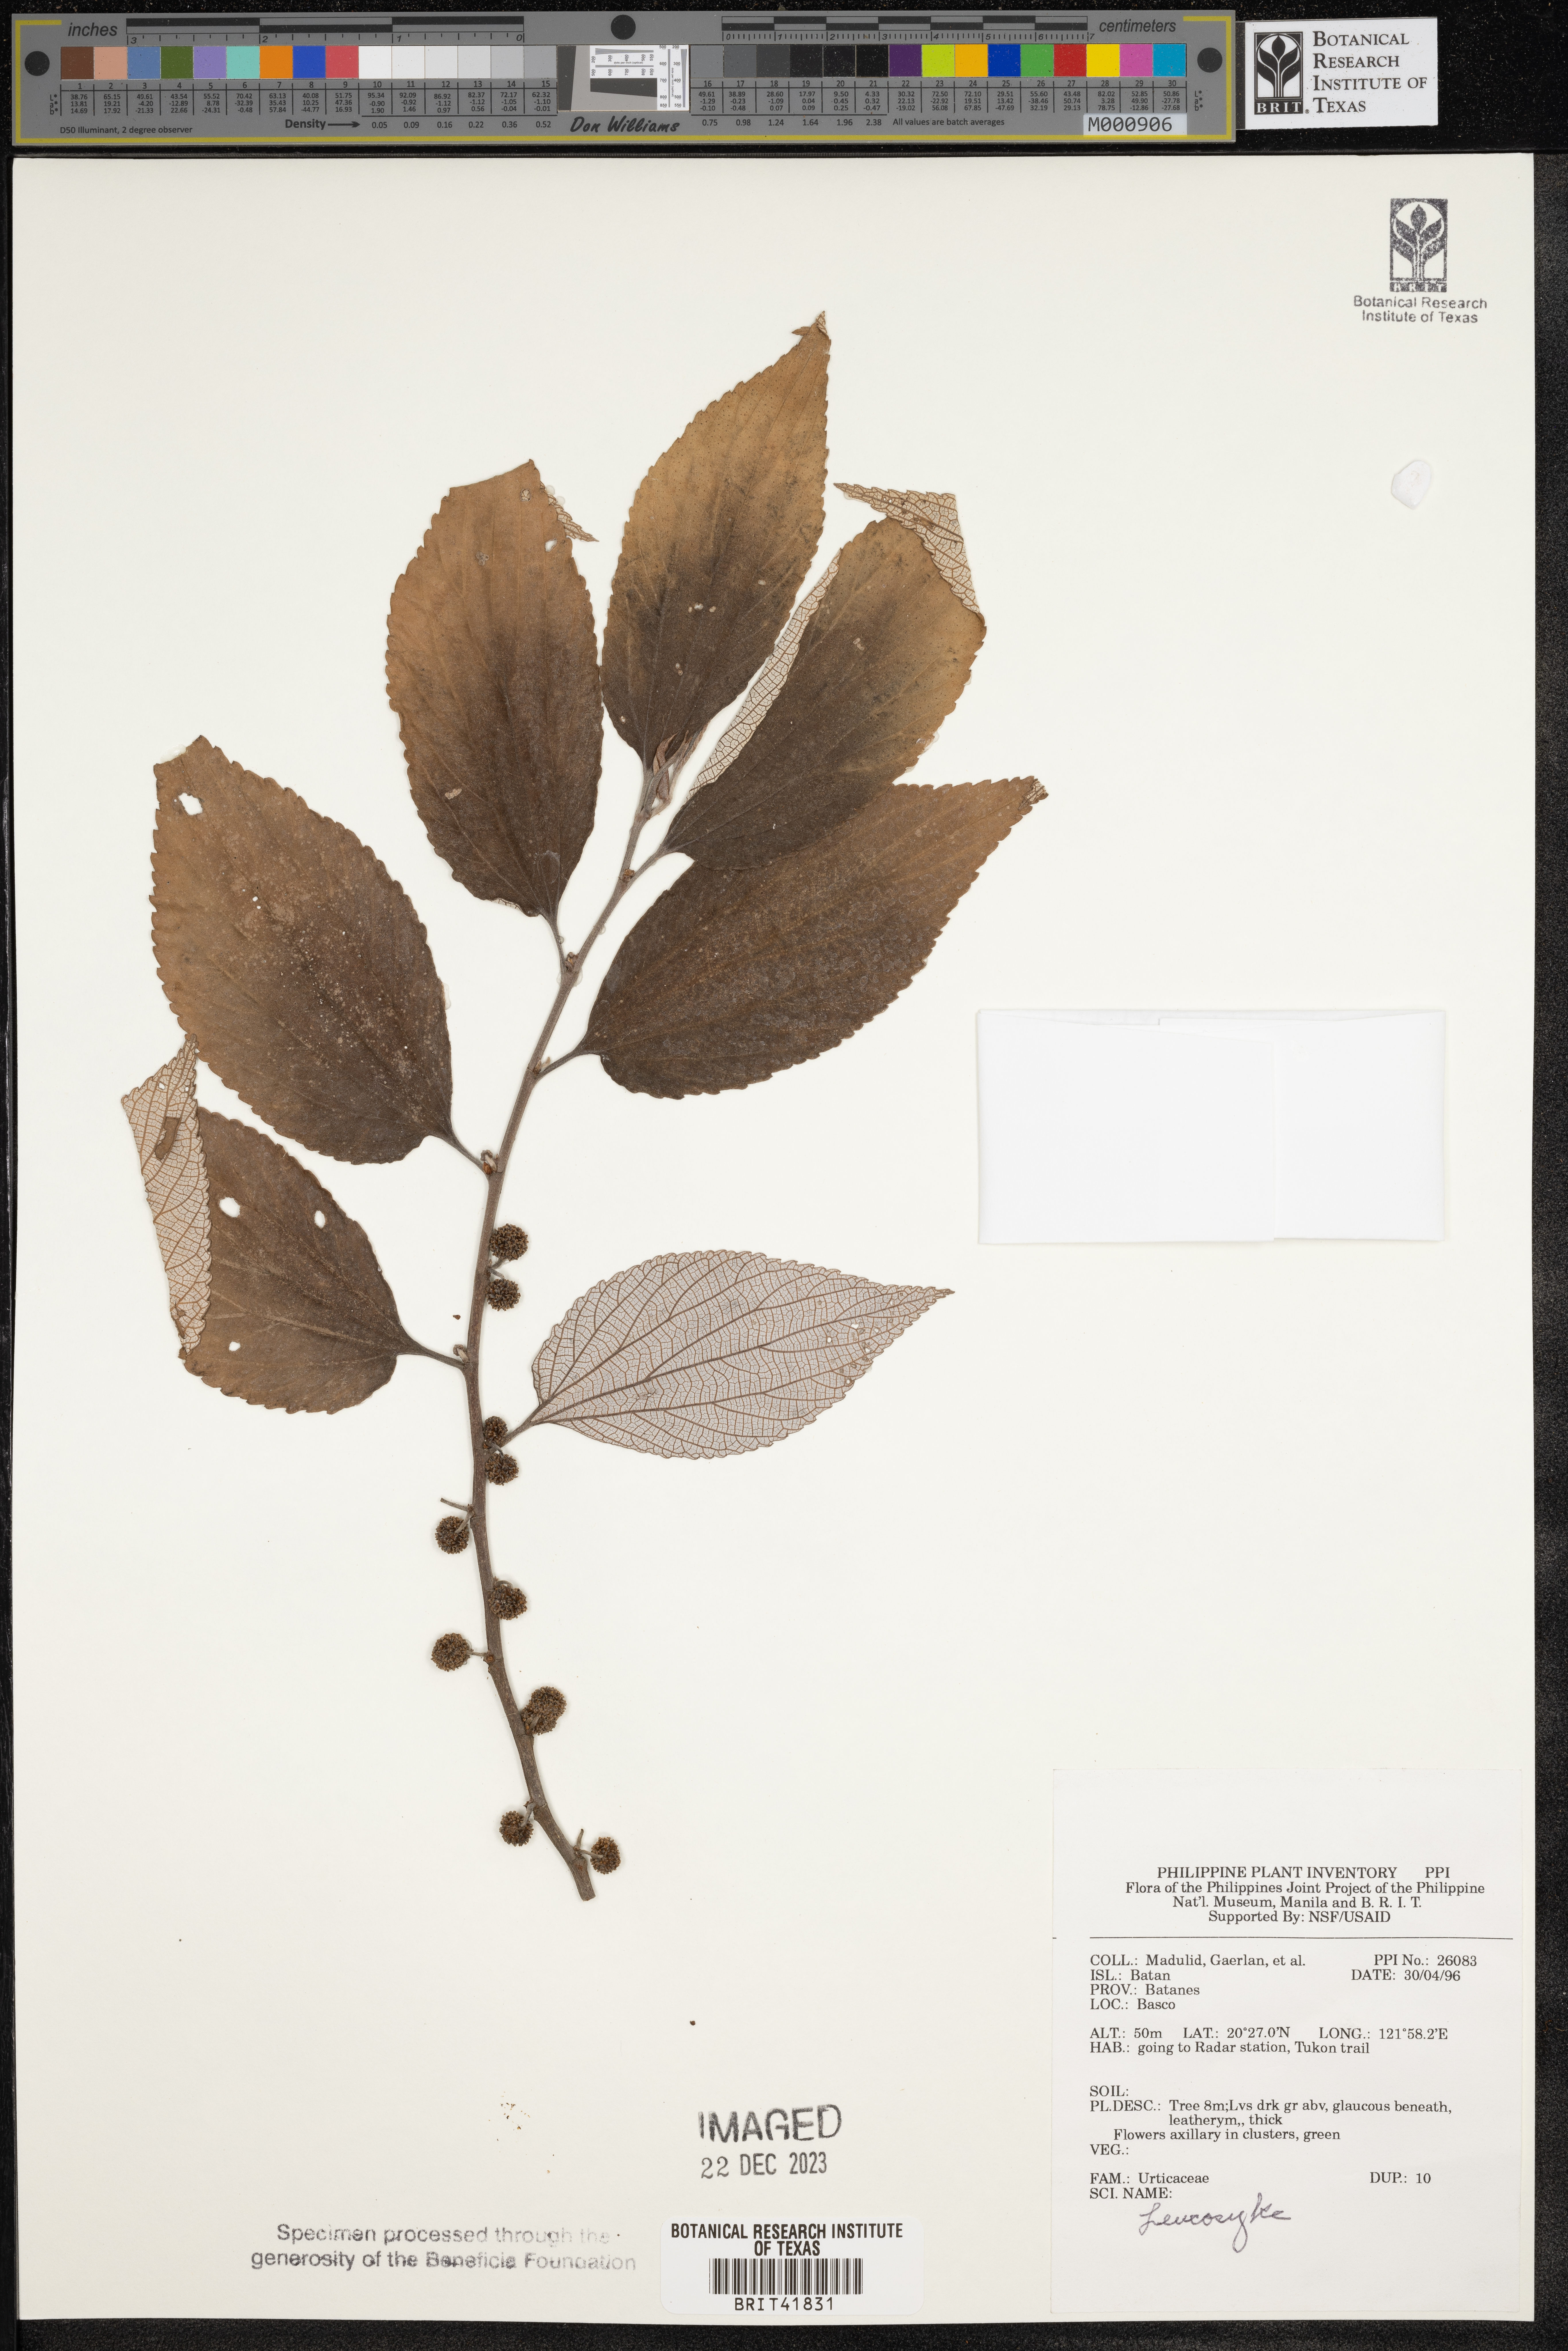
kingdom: Plantae
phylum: Tracheophyta
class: Magnoliopsida
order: Rosales
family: Urticaceae
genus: Leucosyke
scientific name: Leucosyke
